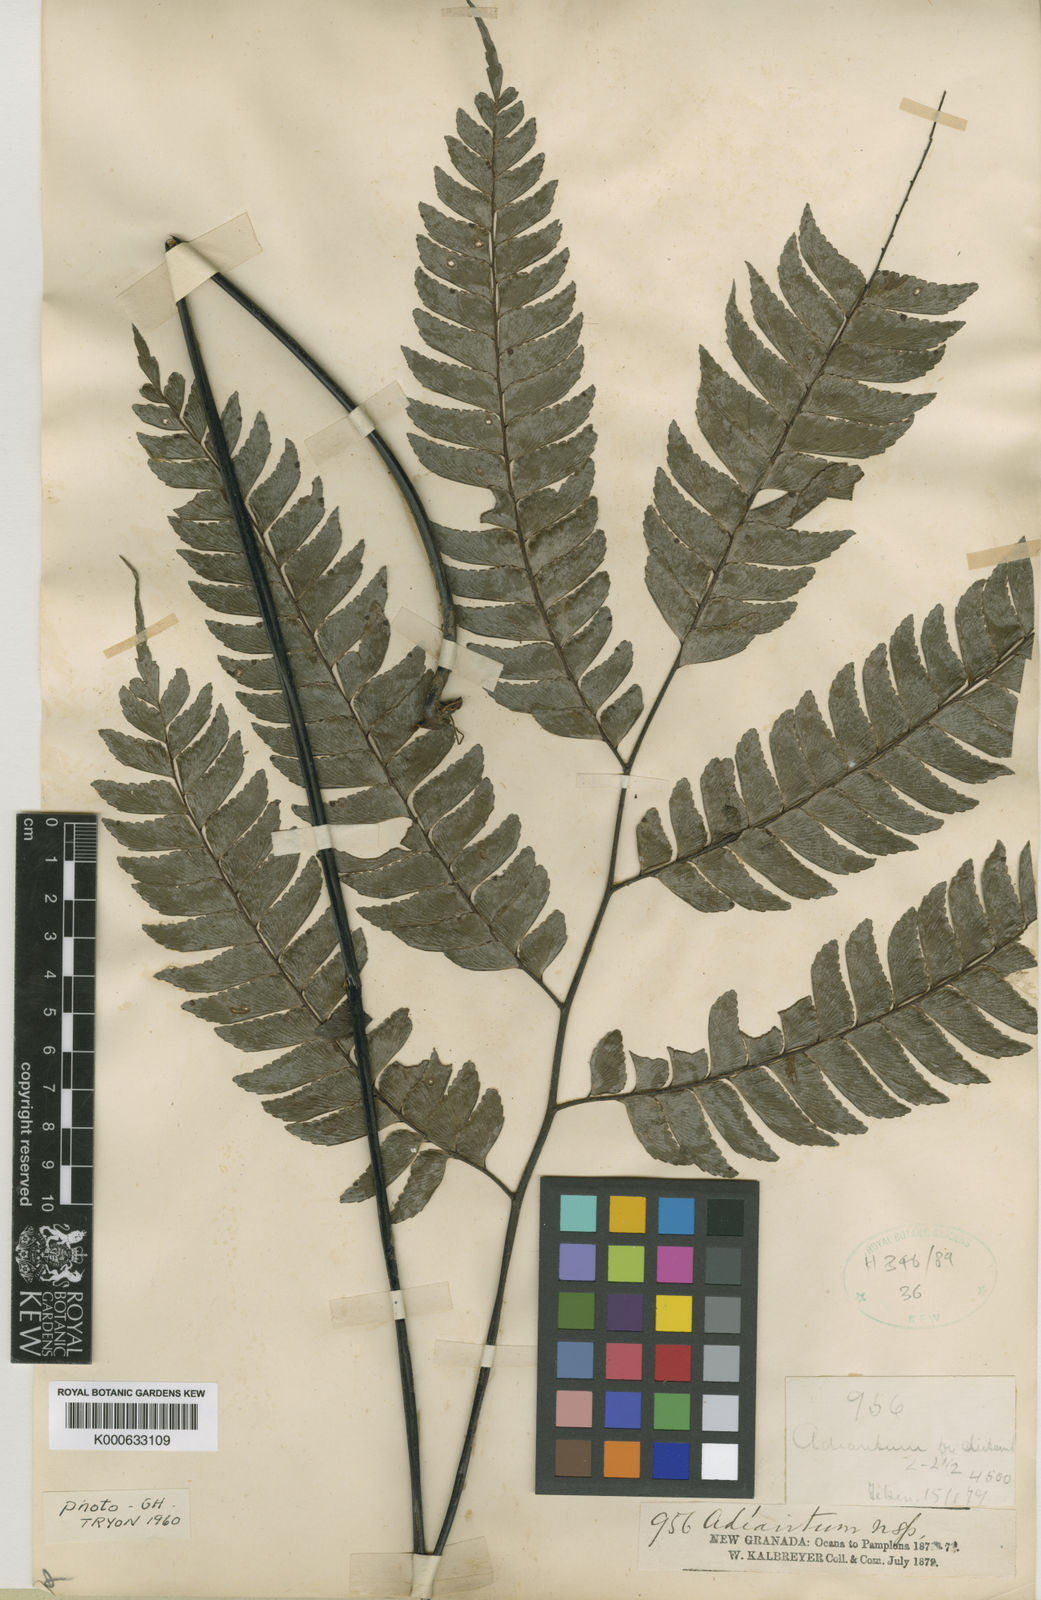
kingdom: Plantae
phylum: Tracheophyta
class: Polypodiopsida
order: Polypodiales
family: Pteridaceae
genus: Adiantum
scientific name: Adiantum
